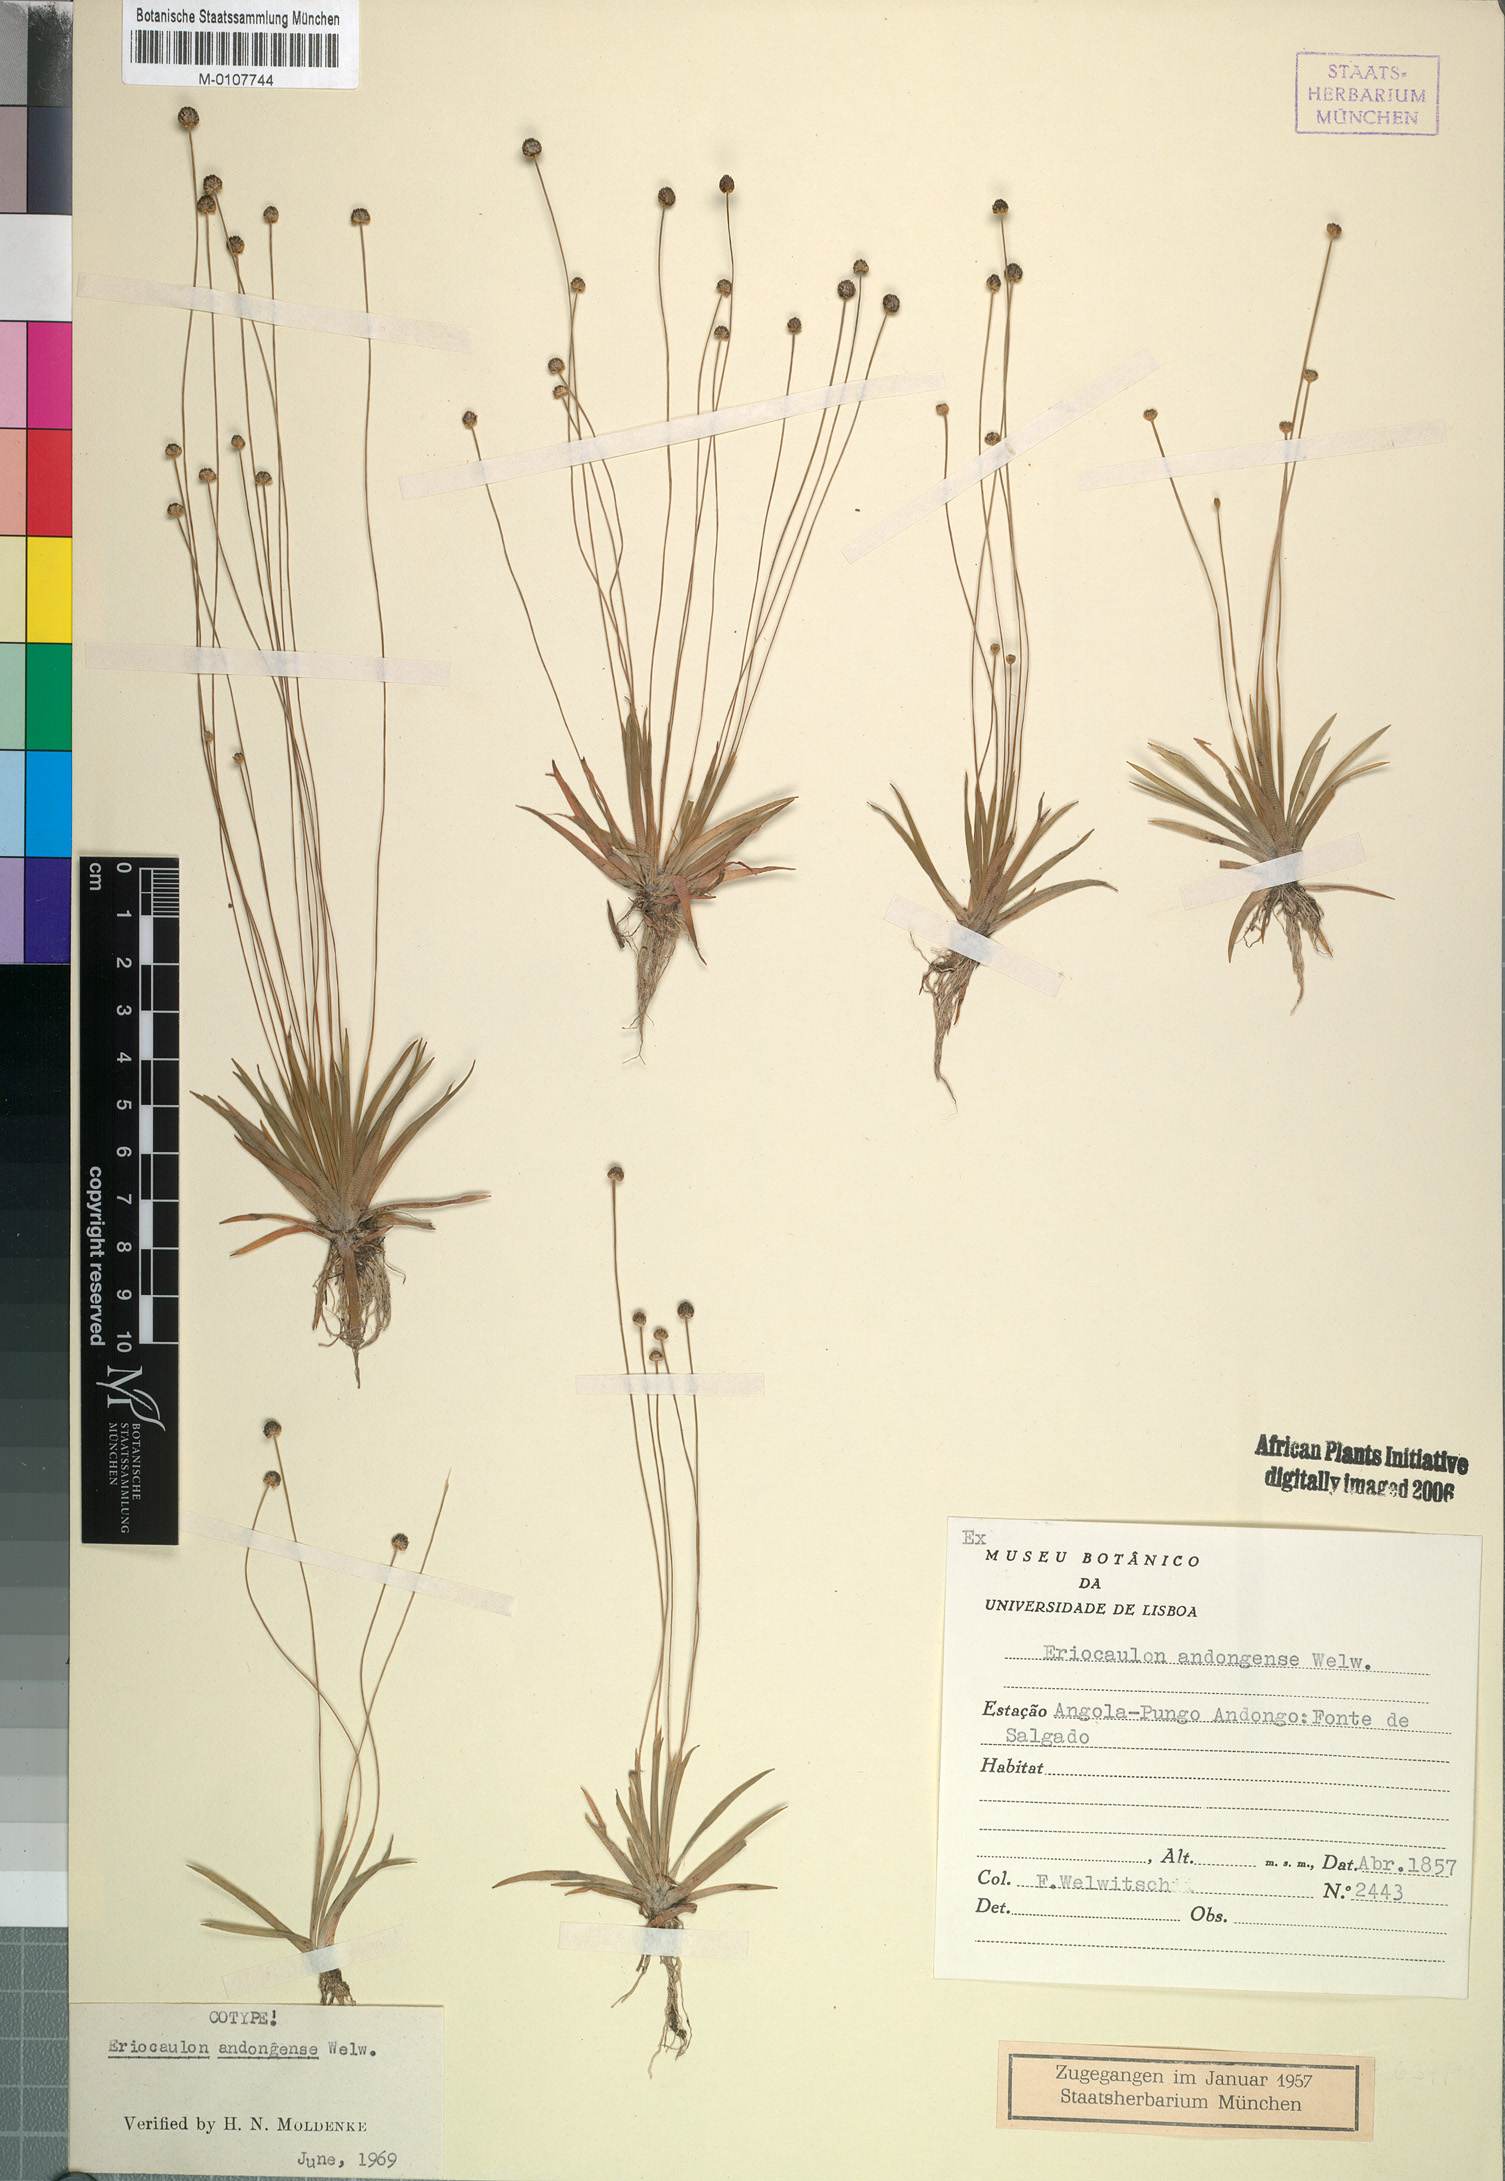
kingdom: Plantae
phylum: Tracheophyta
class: Liliopsida
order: Poales
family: Eriocaulaceae
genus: Eriocaulon
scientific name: Eriocaulon buchananii
